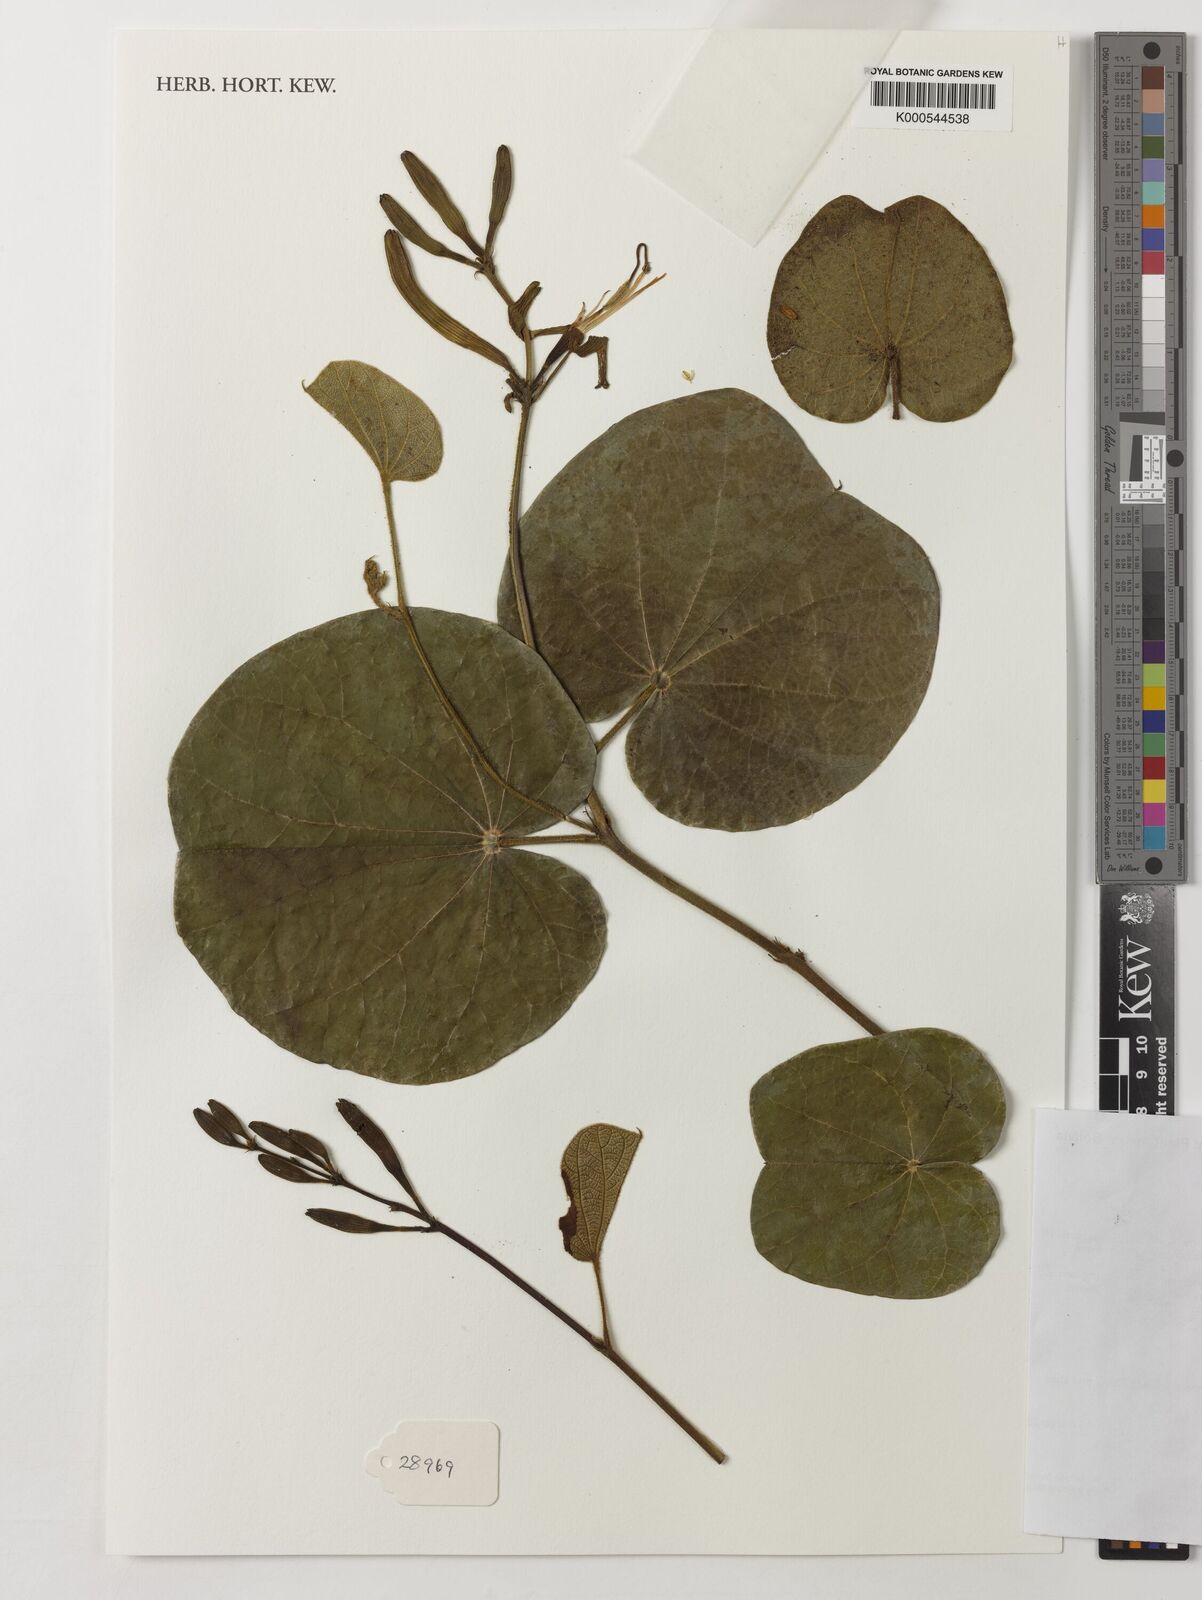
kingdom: Plantae
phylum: Tracheophyta
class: Magnoliopsida
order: Fabales
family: Fabaceae
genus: Bauhinia
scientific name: Bauhinia campestris
